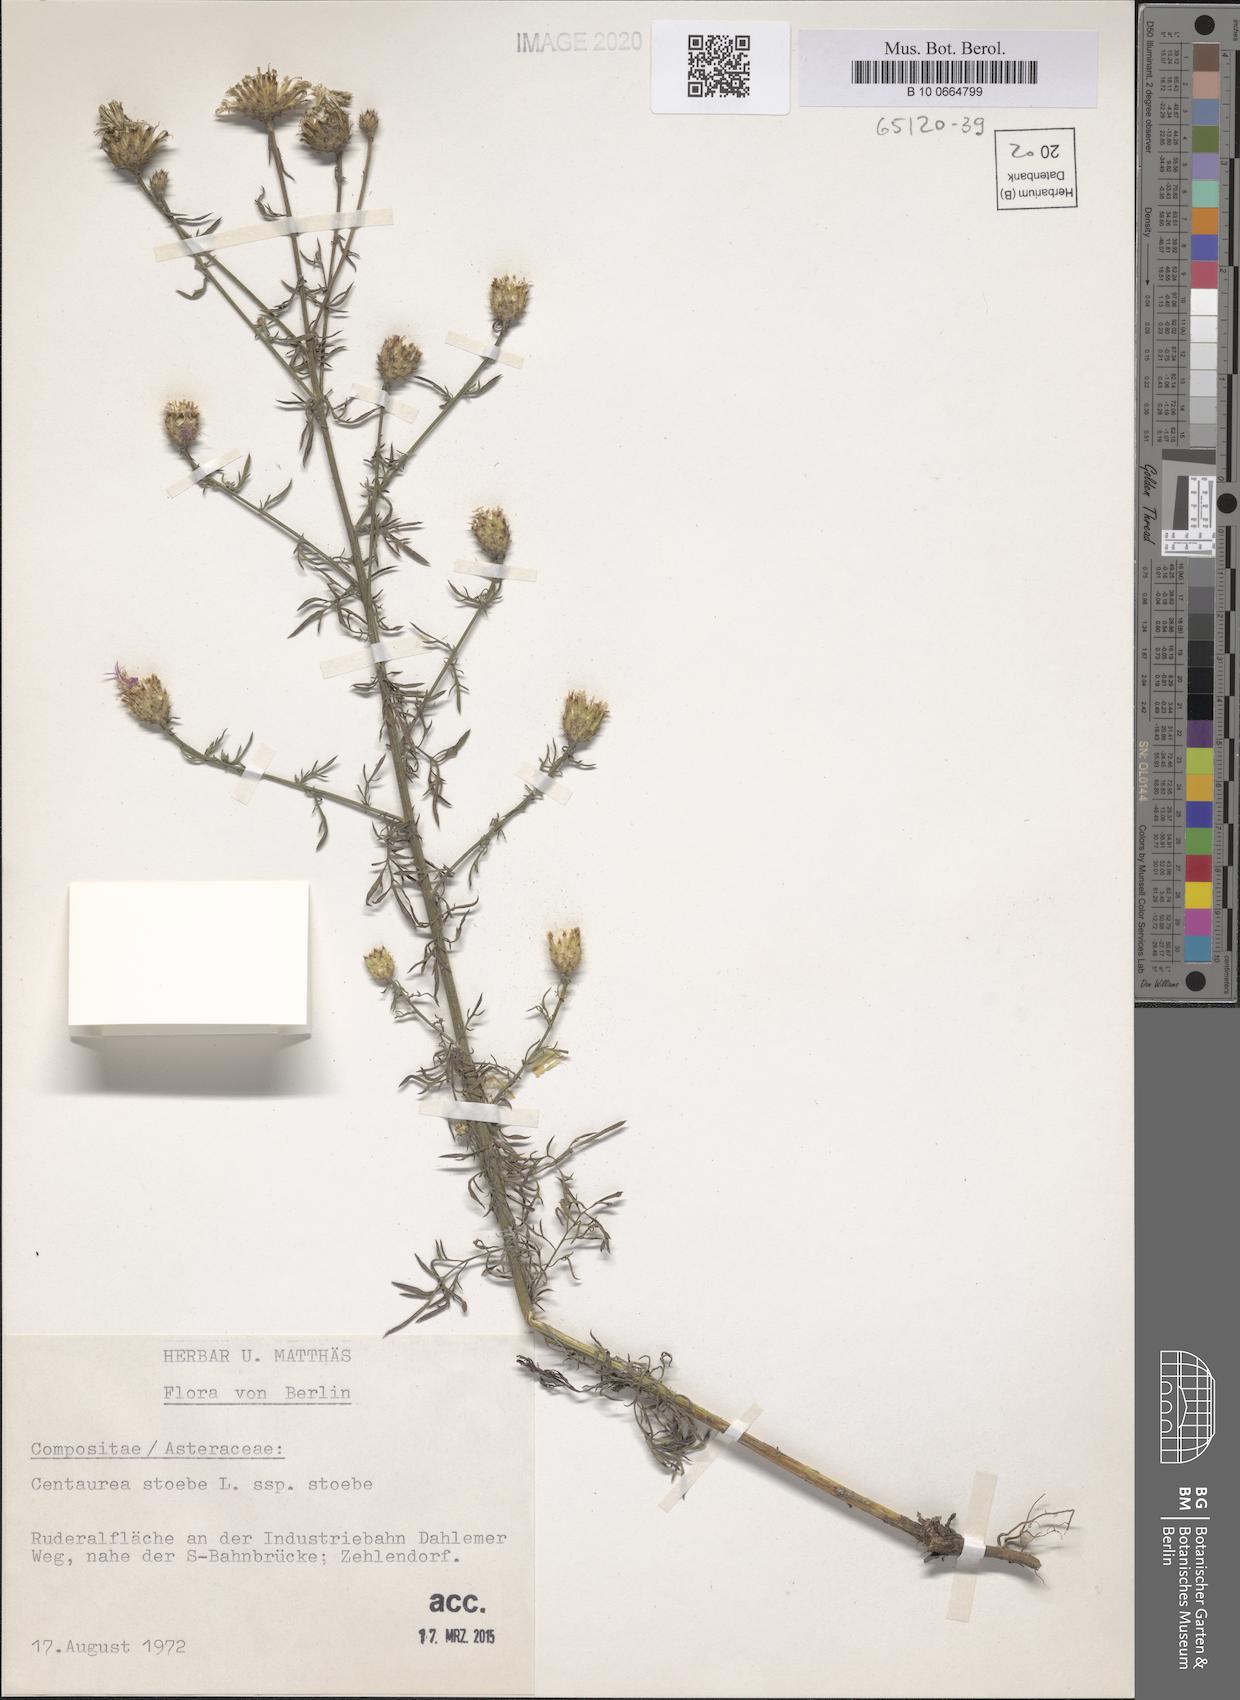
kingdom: Plantae
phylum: Tracheophyta
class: Magnoliopsida
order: Asterales
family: Asteraceae
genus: Centaurea
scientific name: Centaurea stoebe
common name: Spotted knapweed
